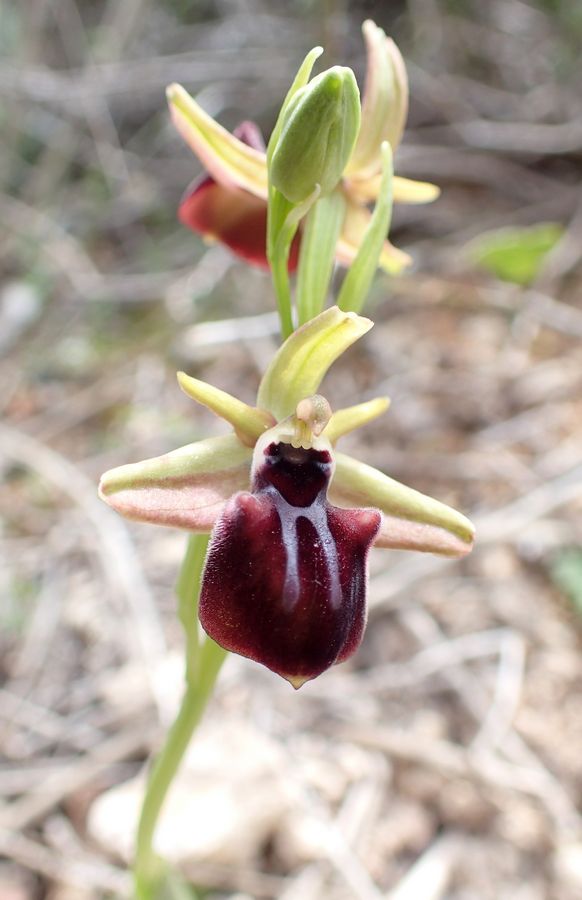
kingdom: Plantae
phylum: Tracheophyta
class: Liliopsida
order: Asparagales
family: Orchidaceae
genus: Ophrys
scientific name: Ophrys sphegodes
